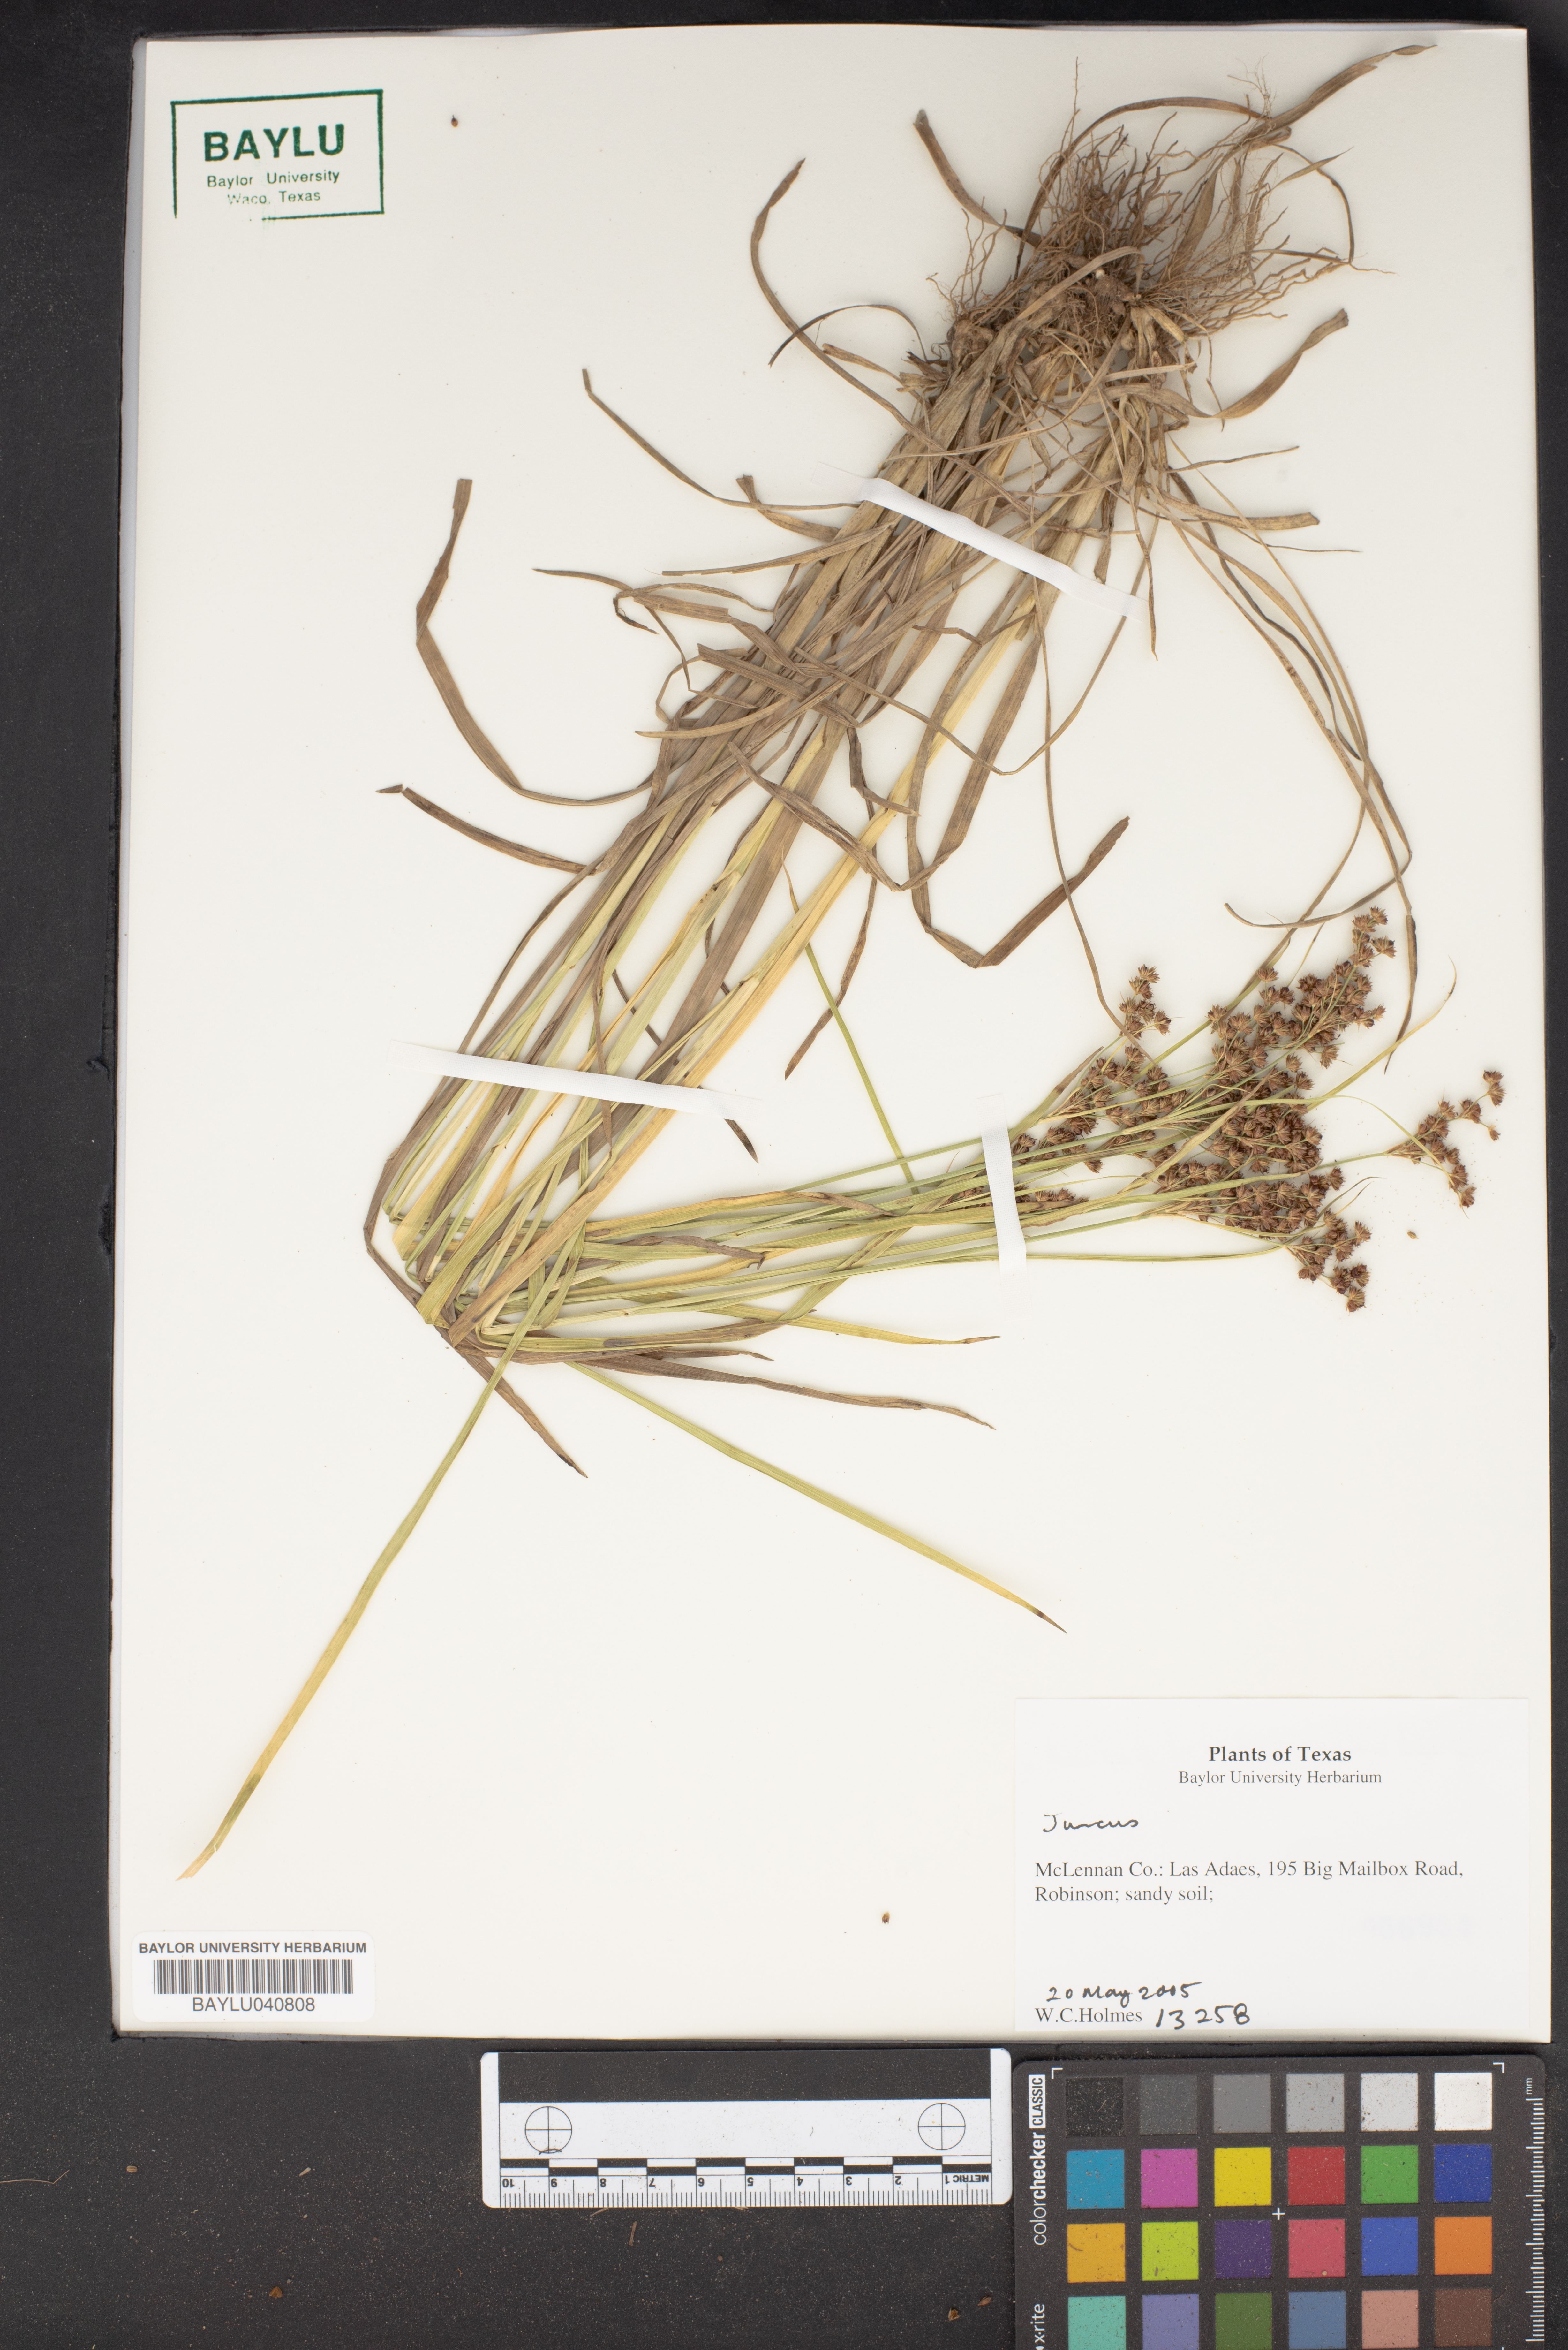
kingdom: Plantae
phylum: Tracheophyta
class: Liliopsida
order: Poales
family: Juncaceae
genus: Juncus
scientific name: Juncus
